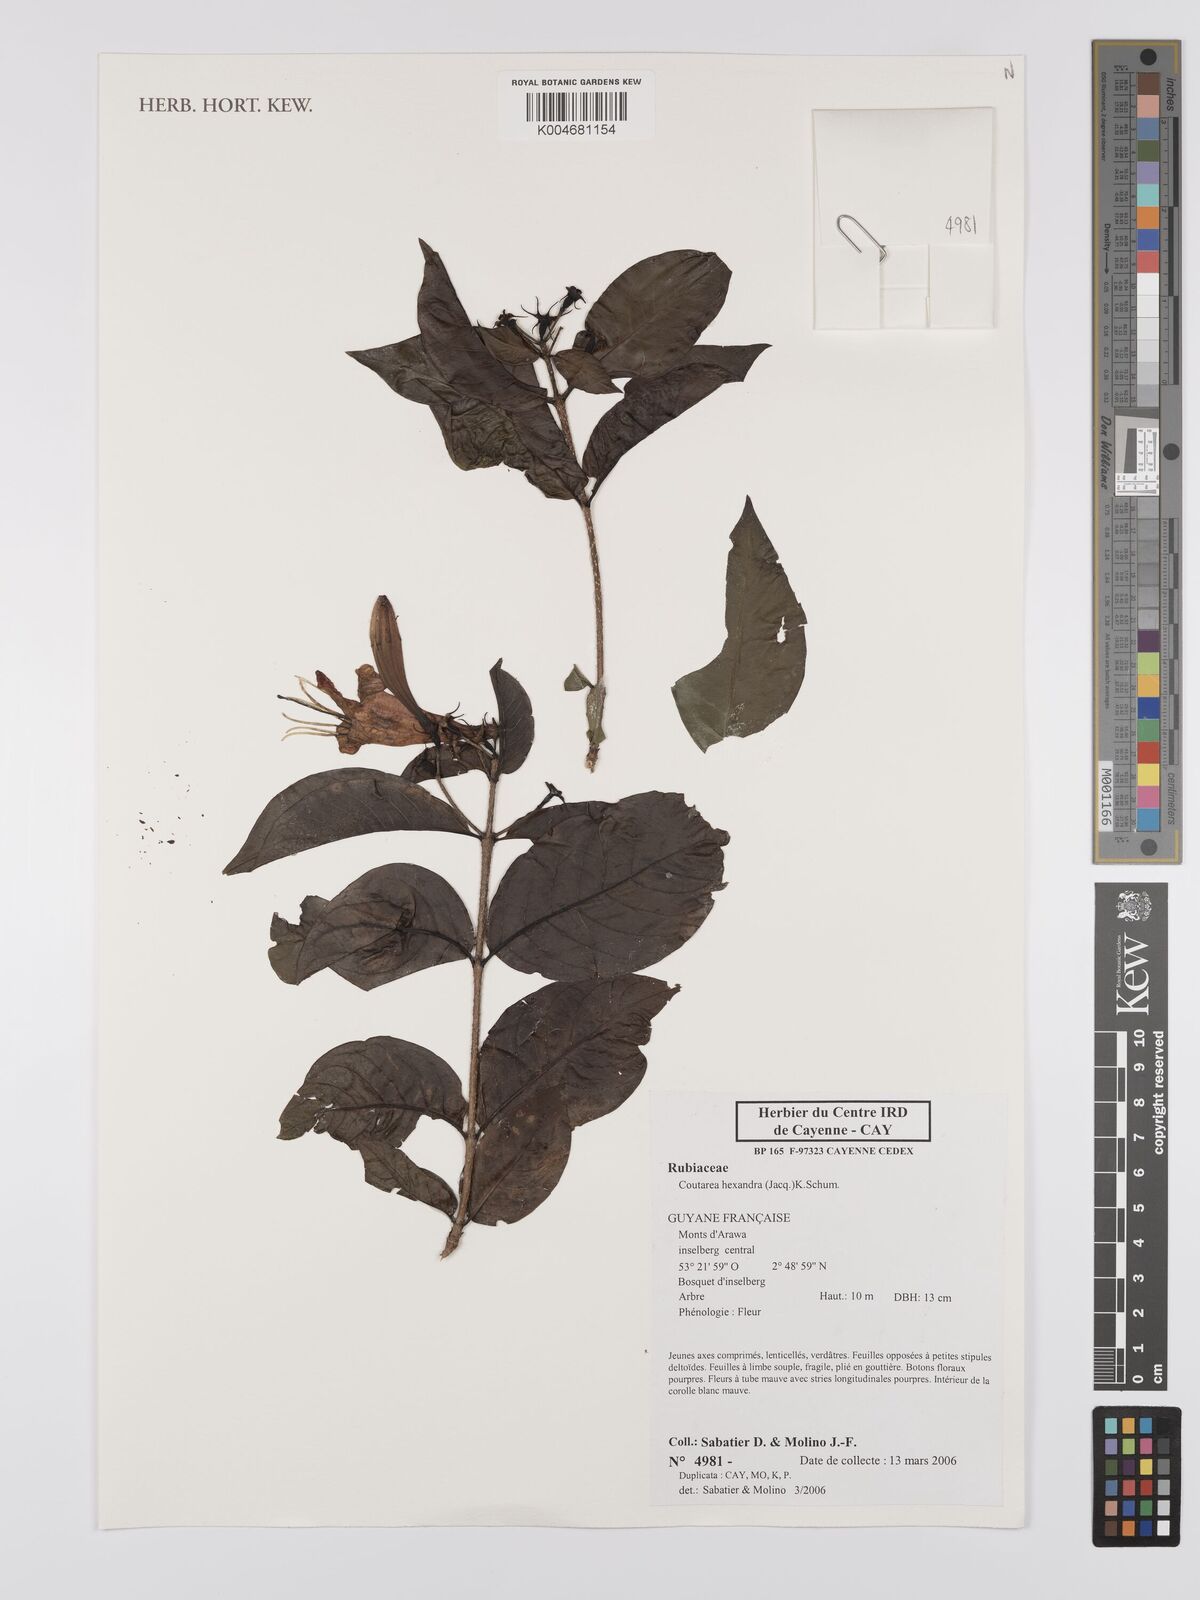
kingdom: Plantae
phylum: Tracheophyta
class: Magnoliopsida
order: Gentianales
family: Rubiaceae
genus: Coutarea
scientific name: Coutarea hexandra
